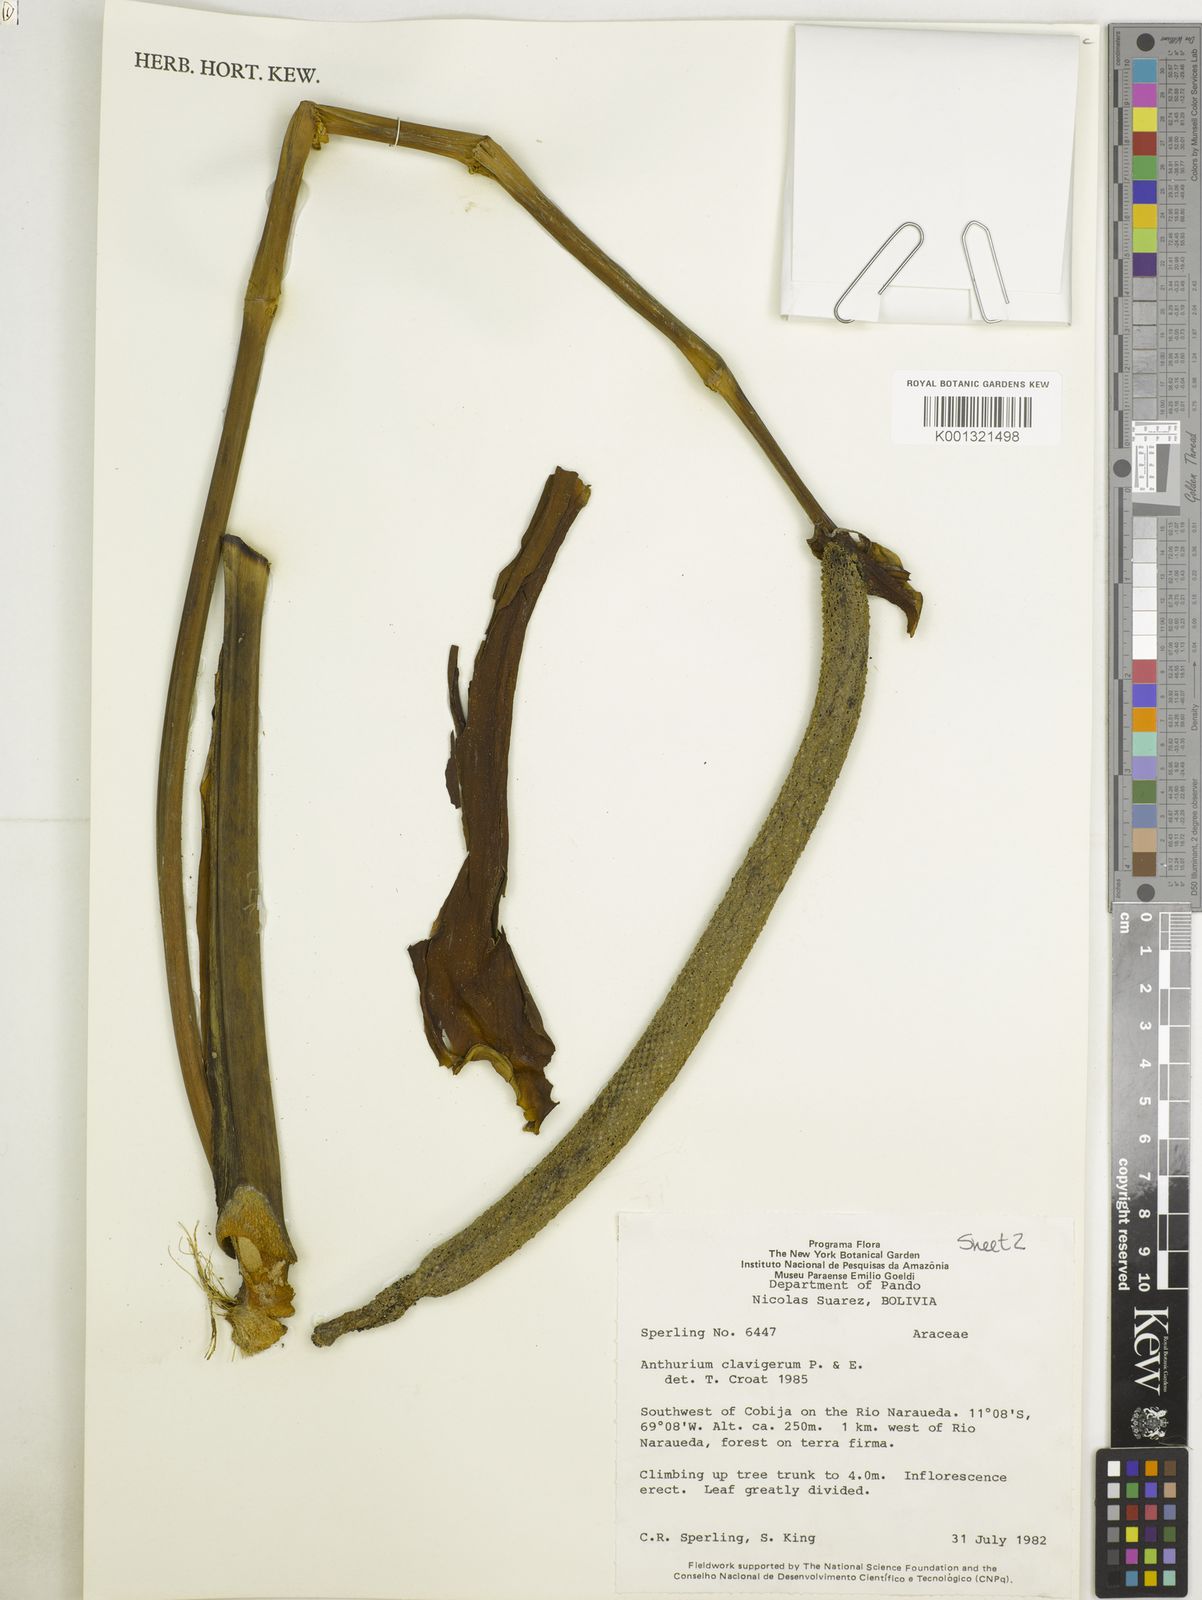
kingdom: Plantae
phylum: Tracheophyta
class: Liliopsida
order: Alismatales
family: Araceae
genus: Anthurium
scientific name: Anthurium clavigerum
